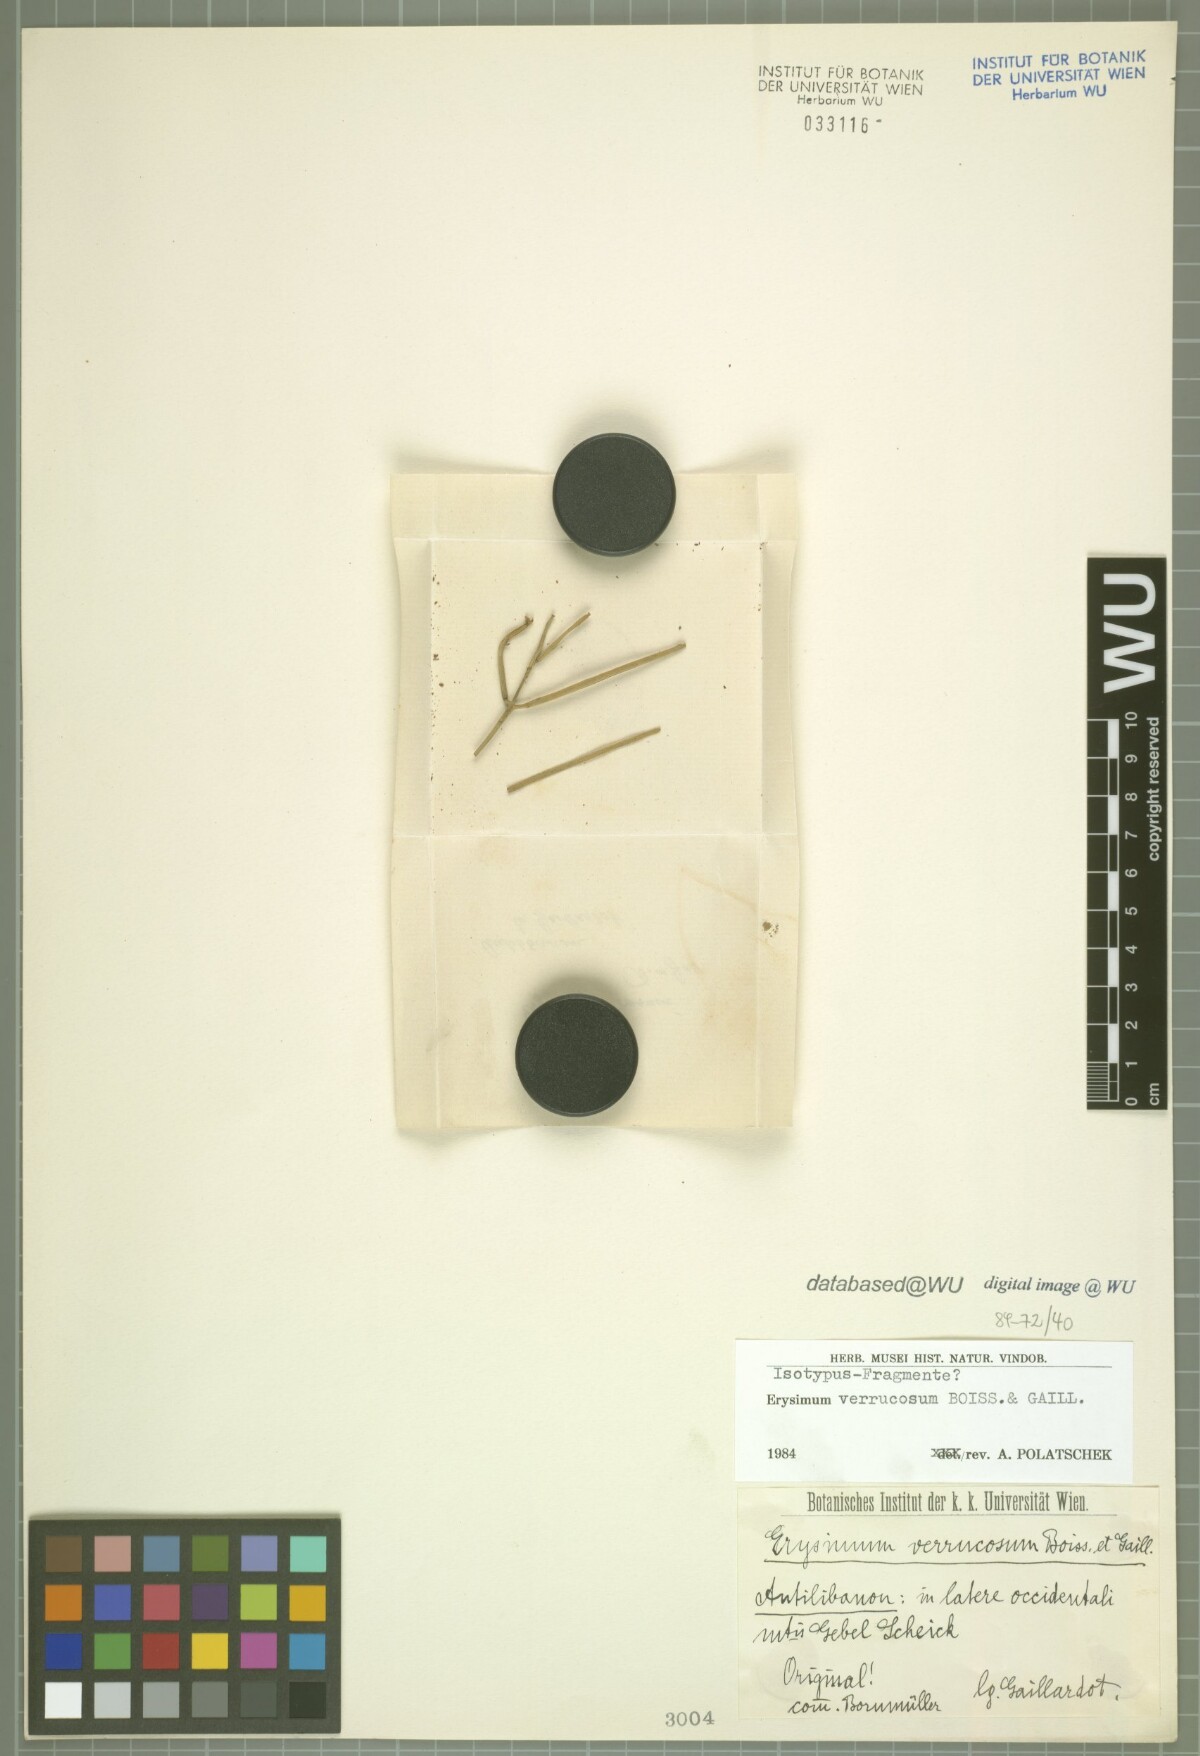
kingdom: Plantae
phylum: Tracheophyta
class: Magnoliopsida
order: Brassicales
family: Brassicaceae
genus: Erysimum
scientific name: Erysimum verrucosum
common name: Warty erysimum
